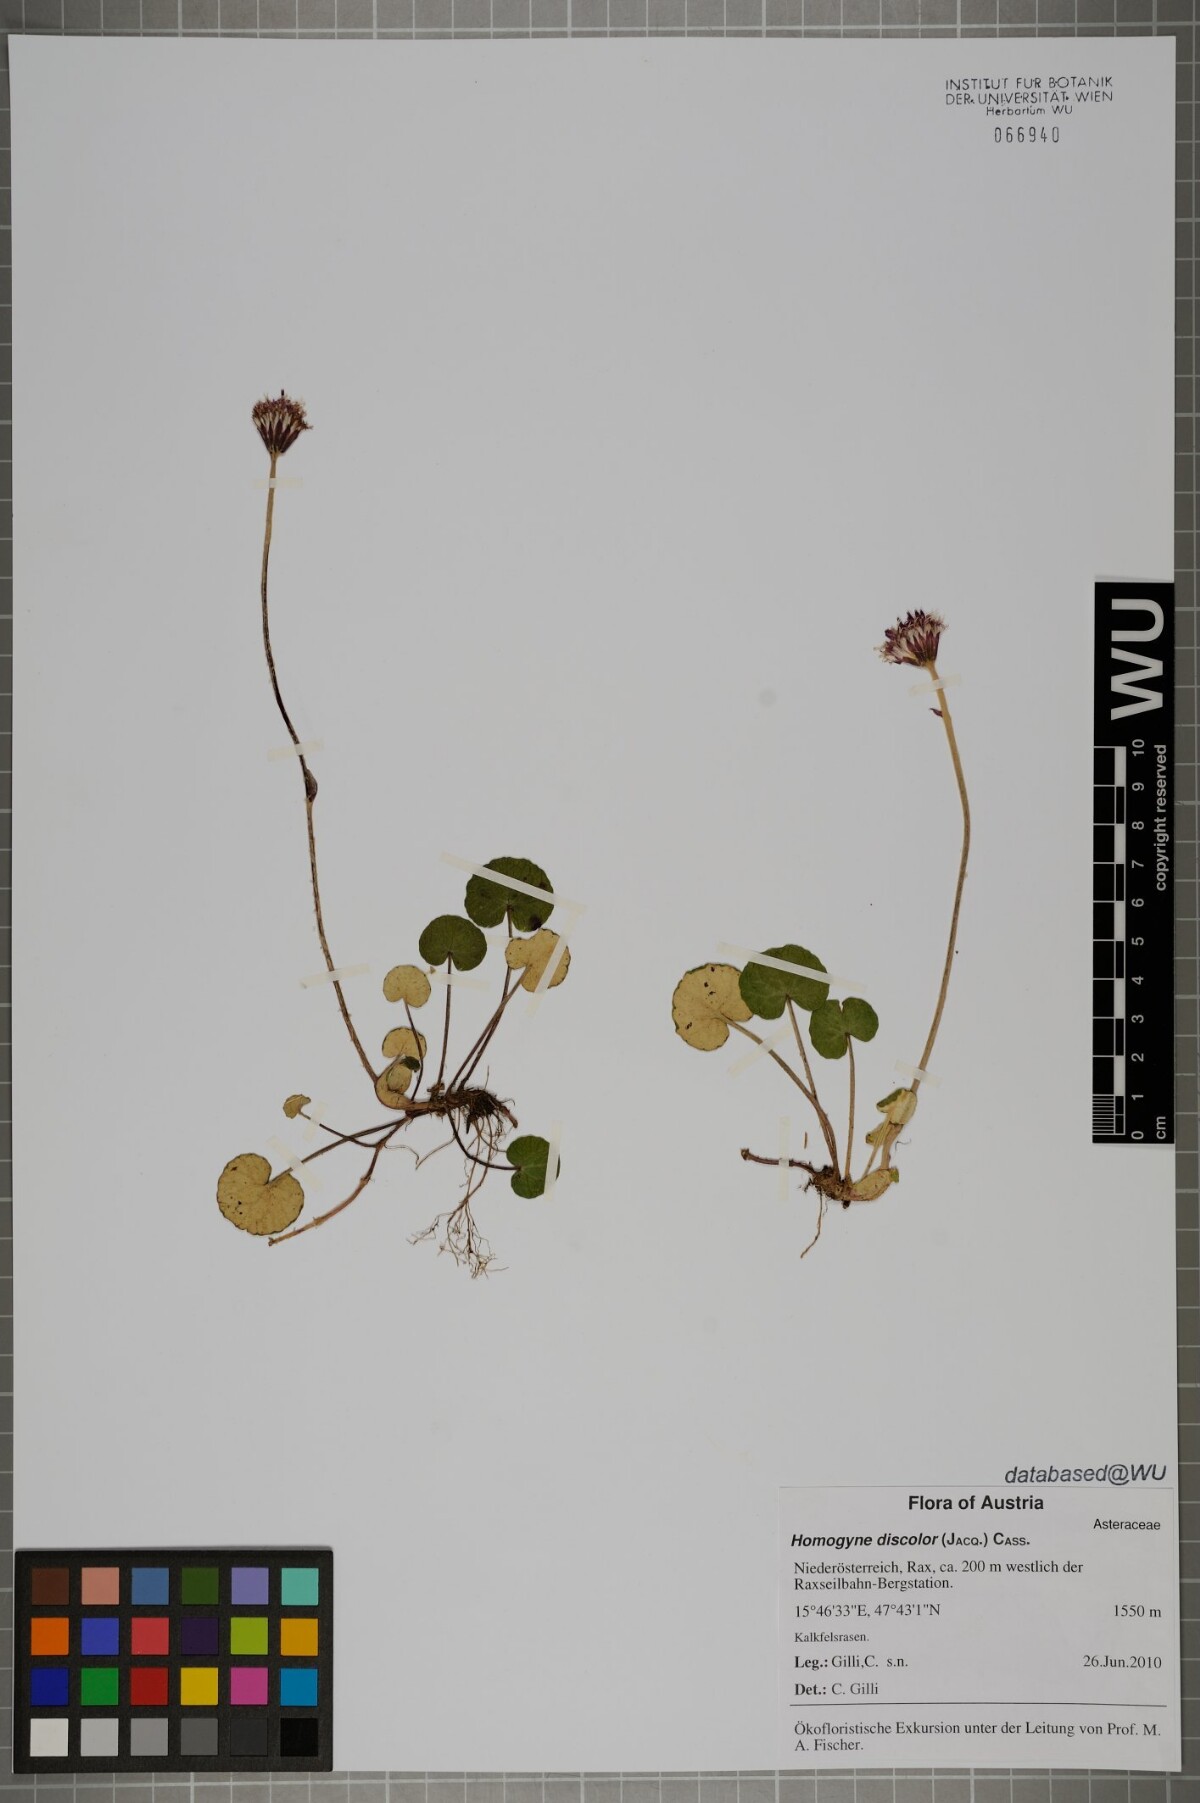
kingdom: Plantae
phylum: Tracheophyta
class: Magnoliopsida
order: Asterales
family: Asteraceae
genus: Homogyne
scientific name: Homogyne discolor
